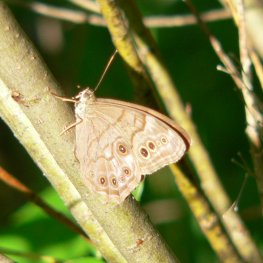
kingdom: Animalia
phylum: Arthropoda
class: Insecta
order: Lepidoptera
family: Nymphalidae
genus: Lethe
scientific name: Lethe anthedon
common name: Northern Pearly-Eye
